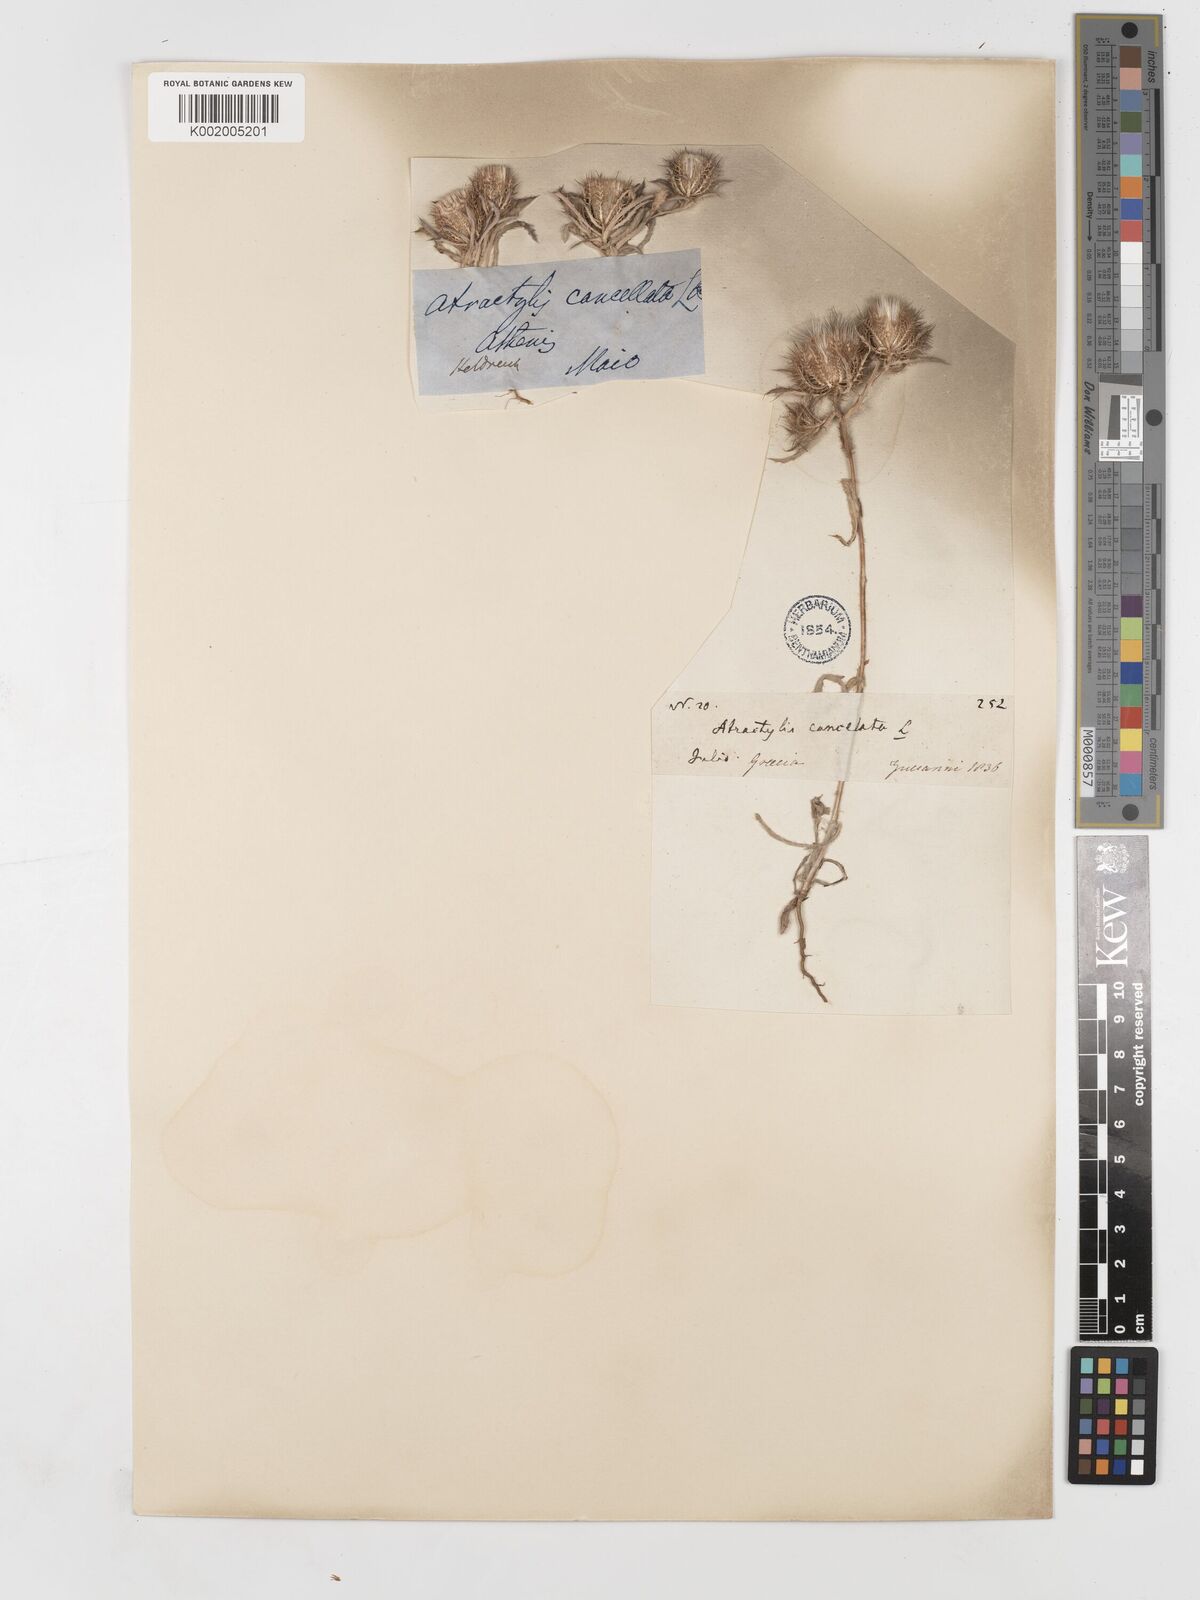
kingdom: Plantae
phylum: Tracheophyta
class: Magnoliopsida
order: Asterales
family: Asteraceae
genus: Atractylis
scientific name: Atractylis cancellata
